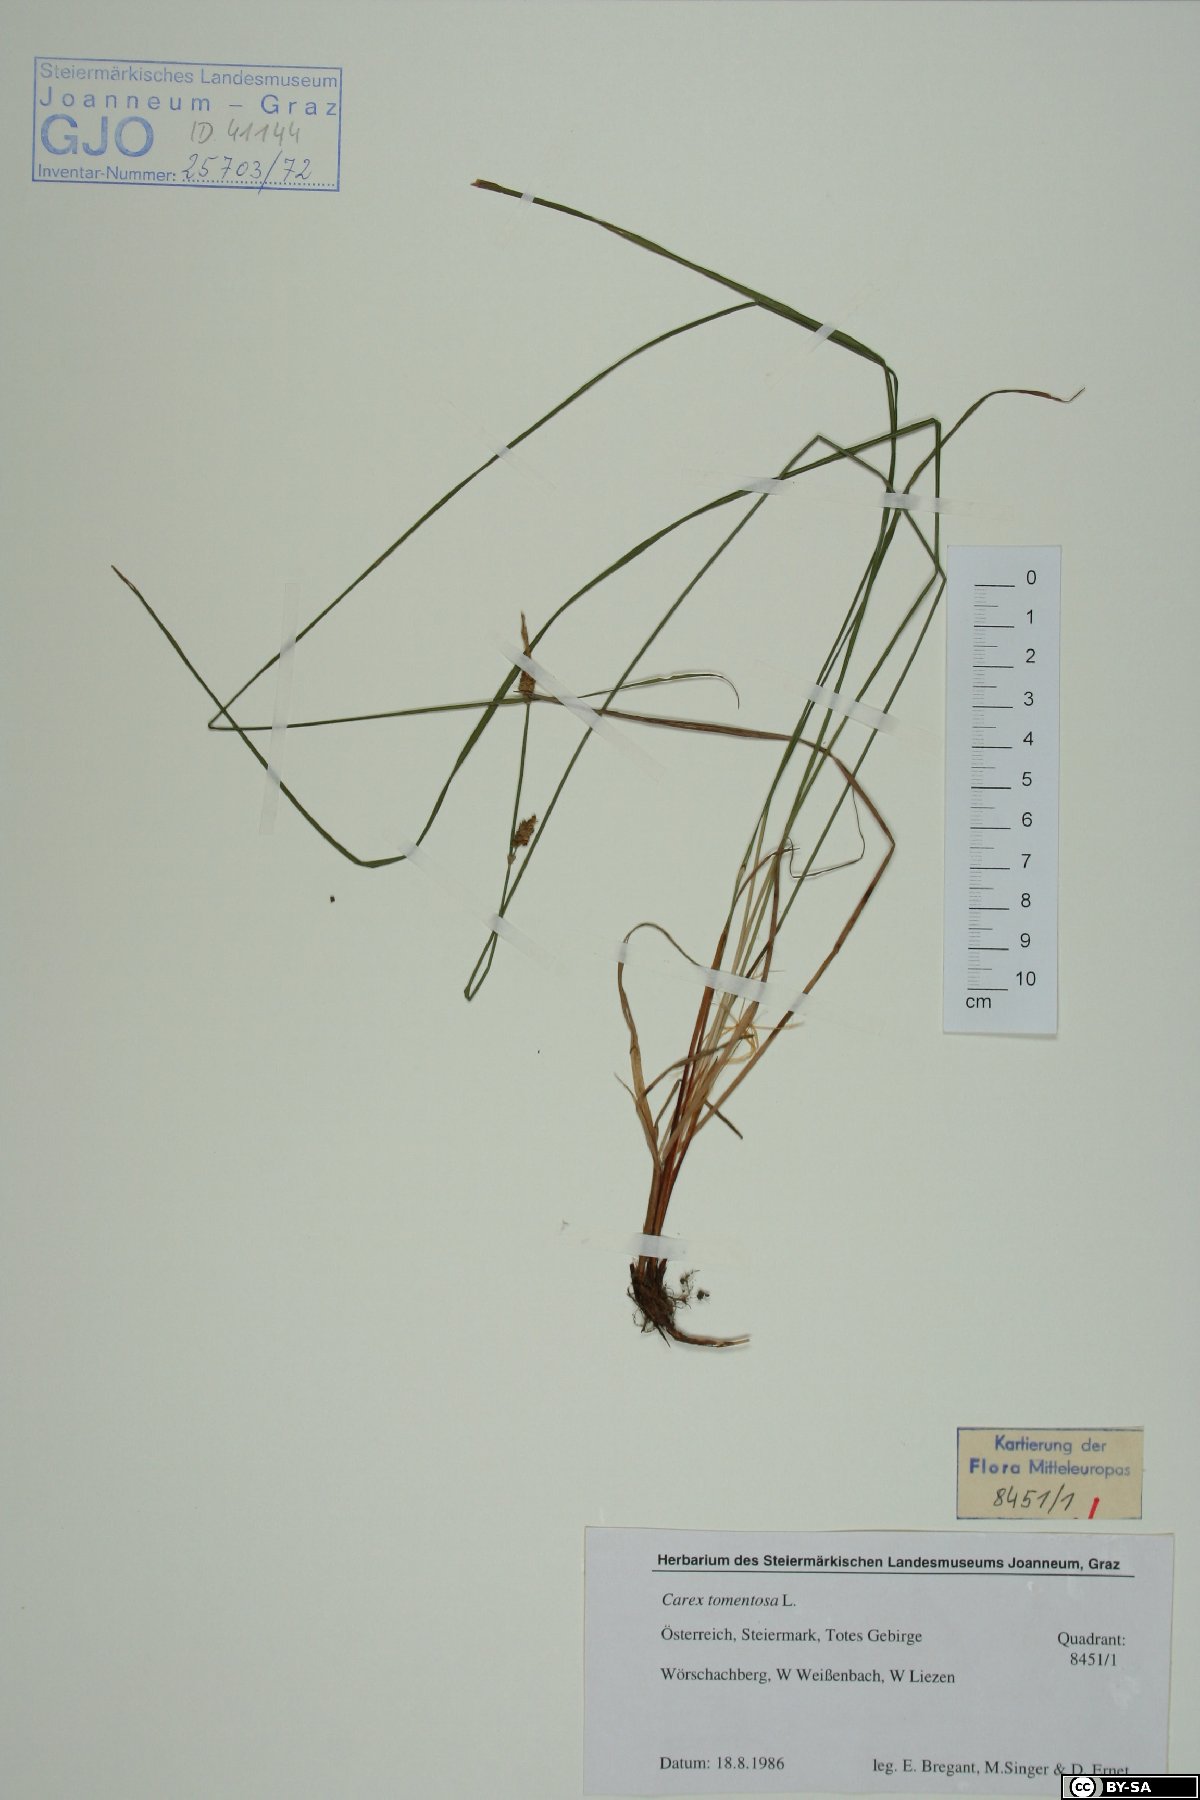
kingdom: Plantae
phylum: Tracheophyta
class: Liliopsida
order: Poales
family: Cyperaceae
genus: Carex
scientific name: Carex tomentosa
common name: Downy-fruited sedge
